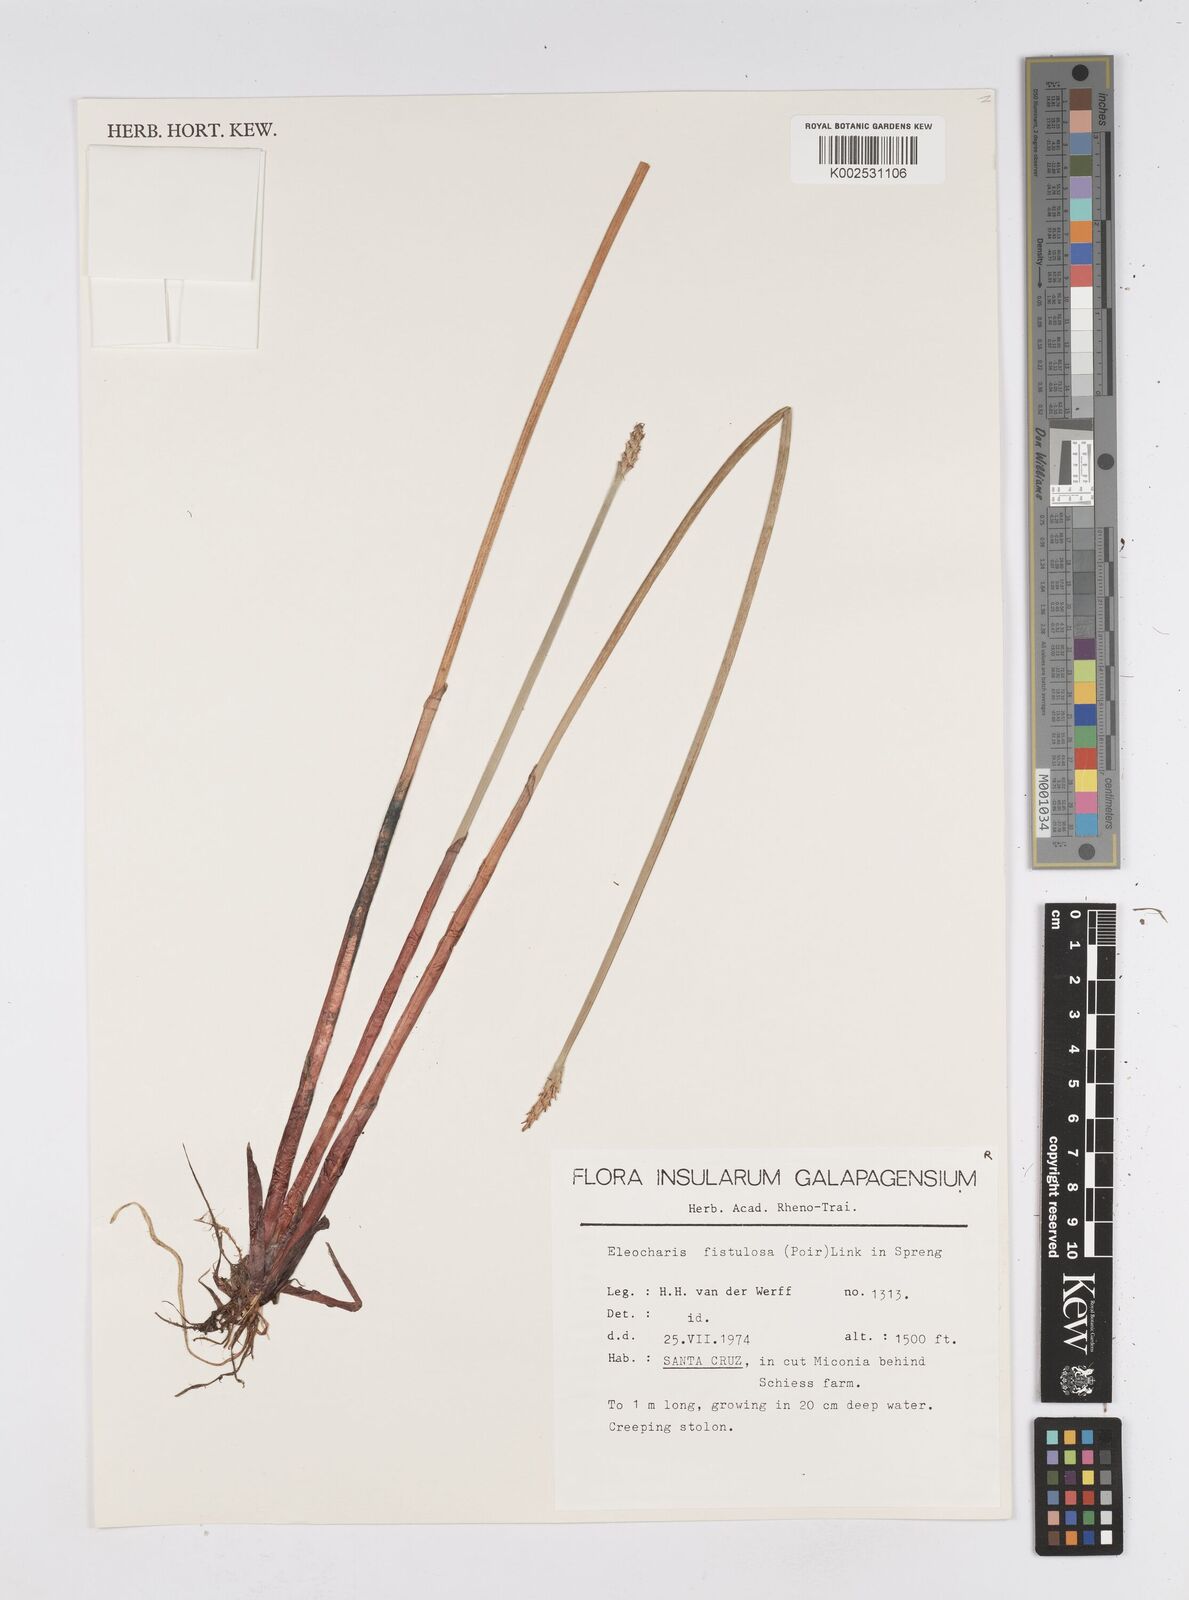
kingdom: Plantae
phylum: Tracheophyta
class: Liliopsida
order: Poales
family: Cyperaceae
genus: Eleocharis
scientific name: Eleocharis acutangula
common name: Acute spikerush
